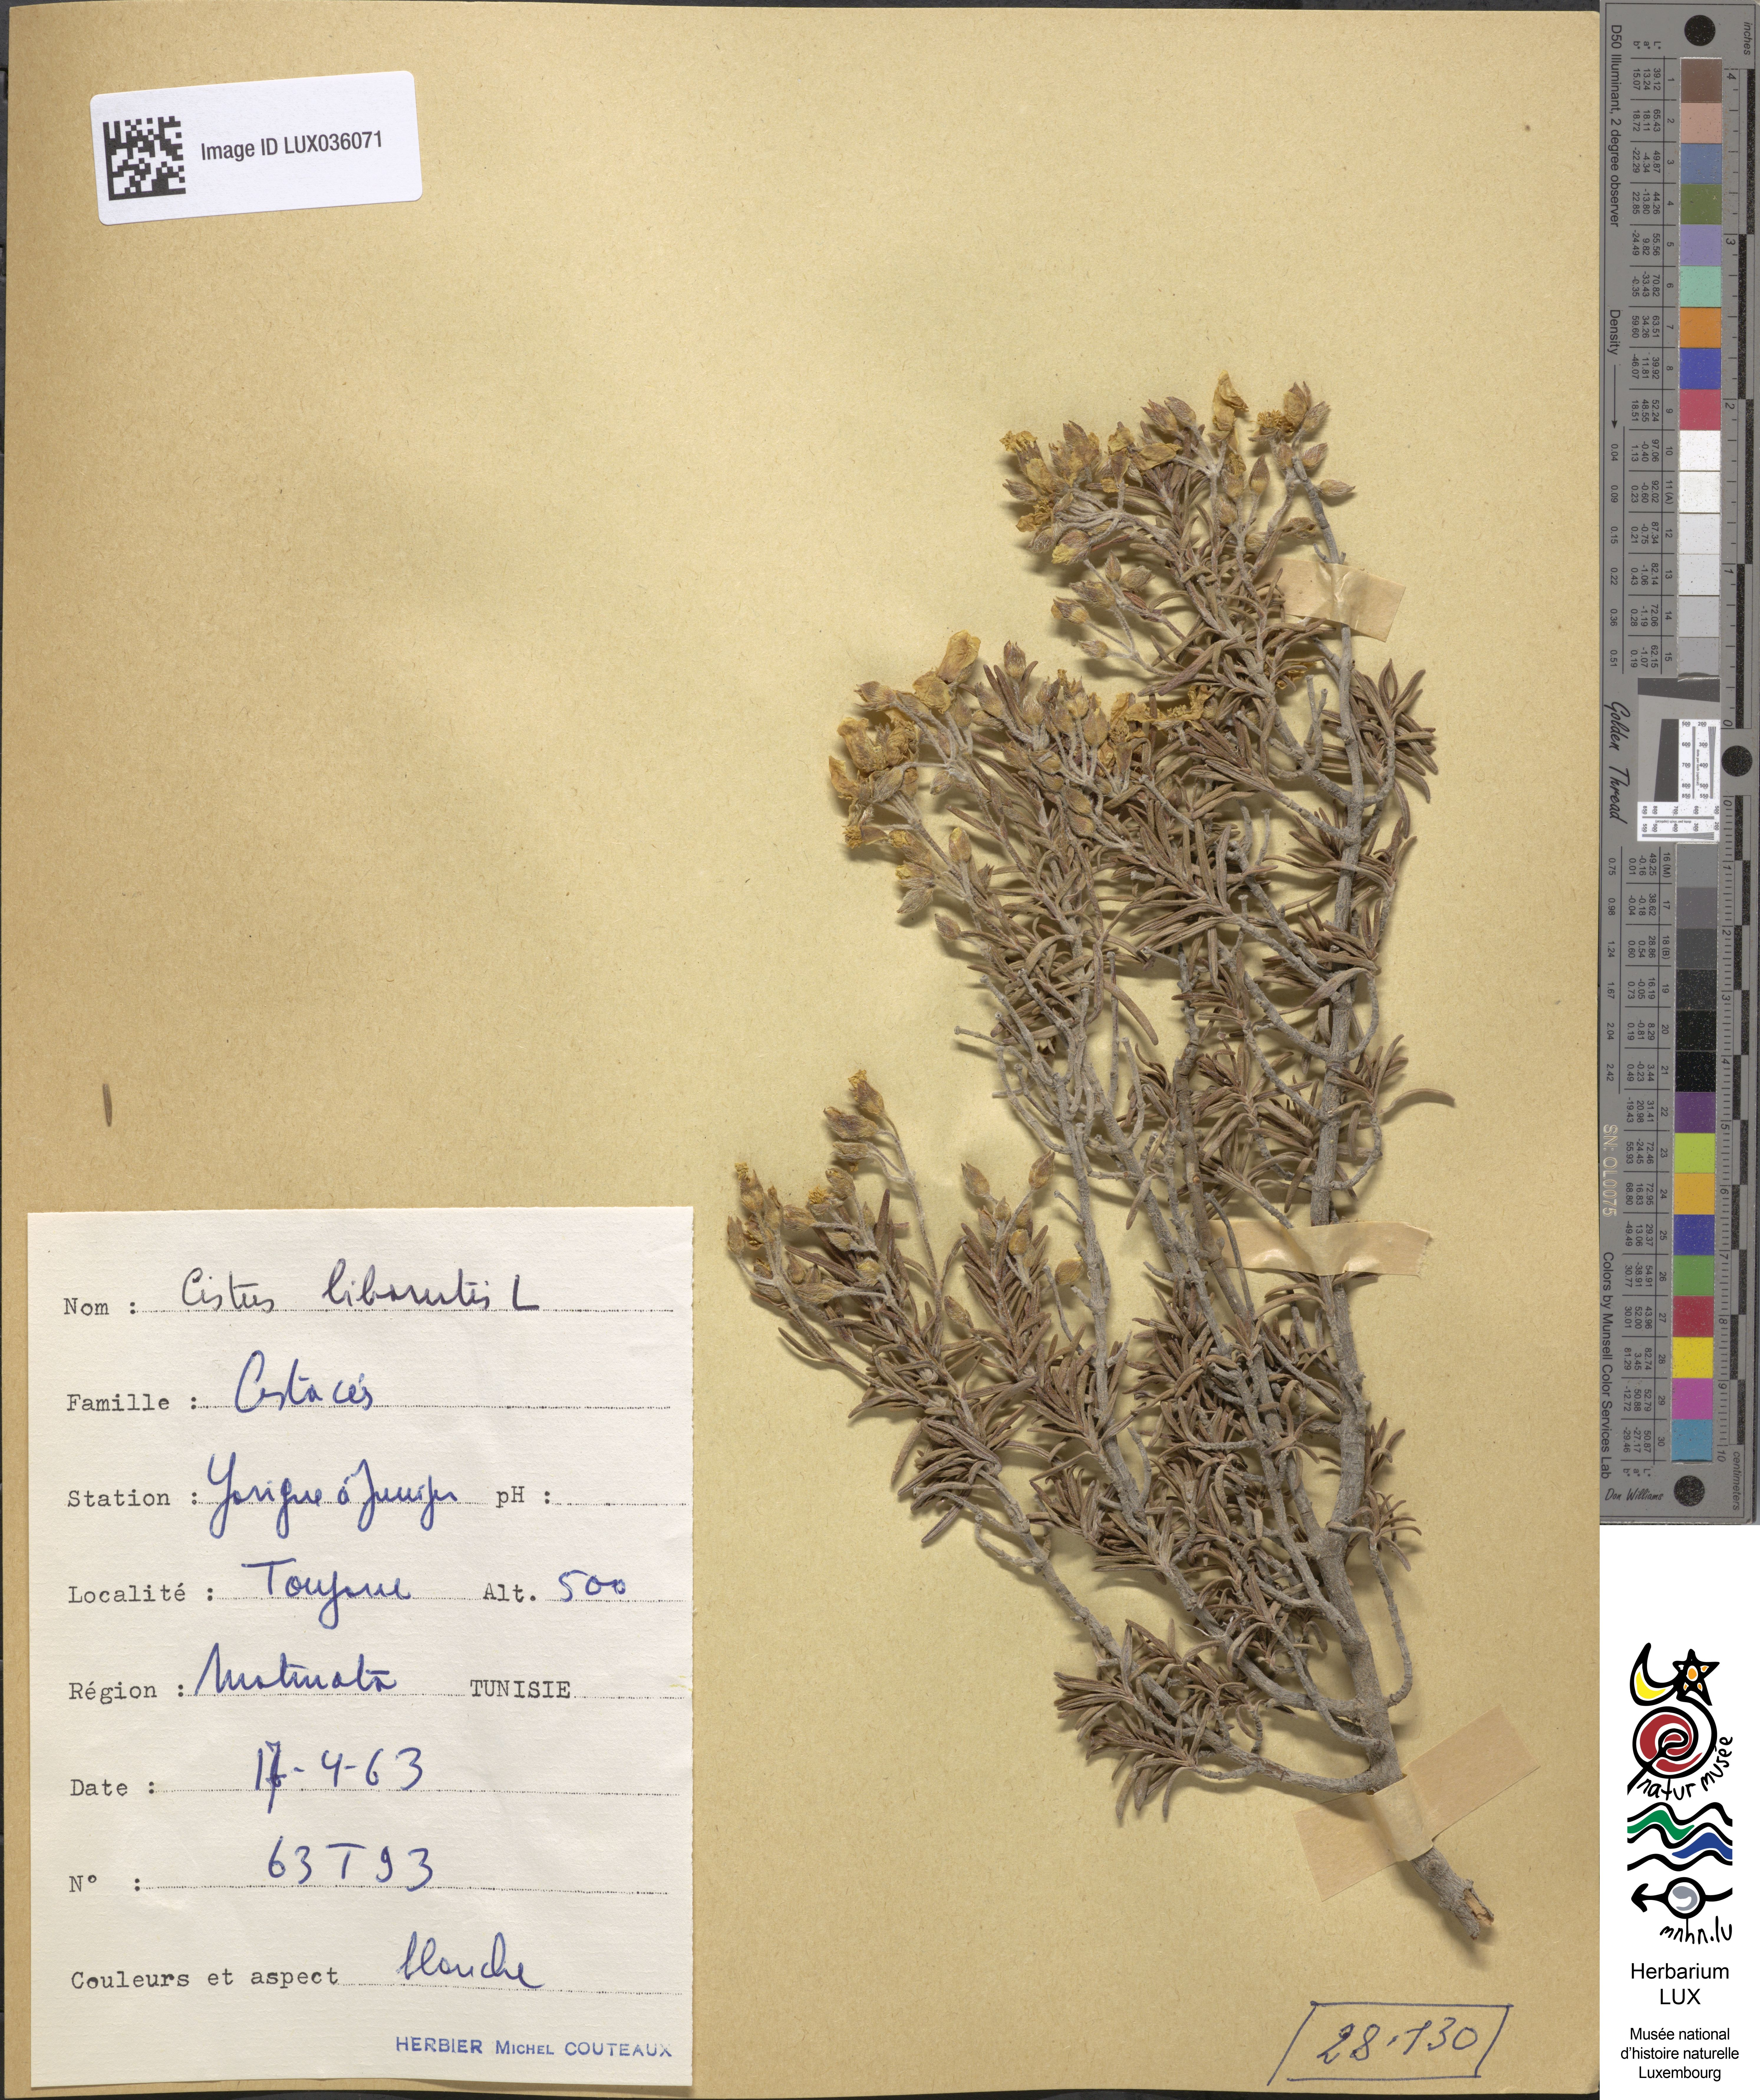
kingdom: Plantae
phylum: Tracheophyta
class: Magnoliopsida
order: Malvales
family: Cistaceae
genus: Cistus
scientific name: Cistus libanotis
